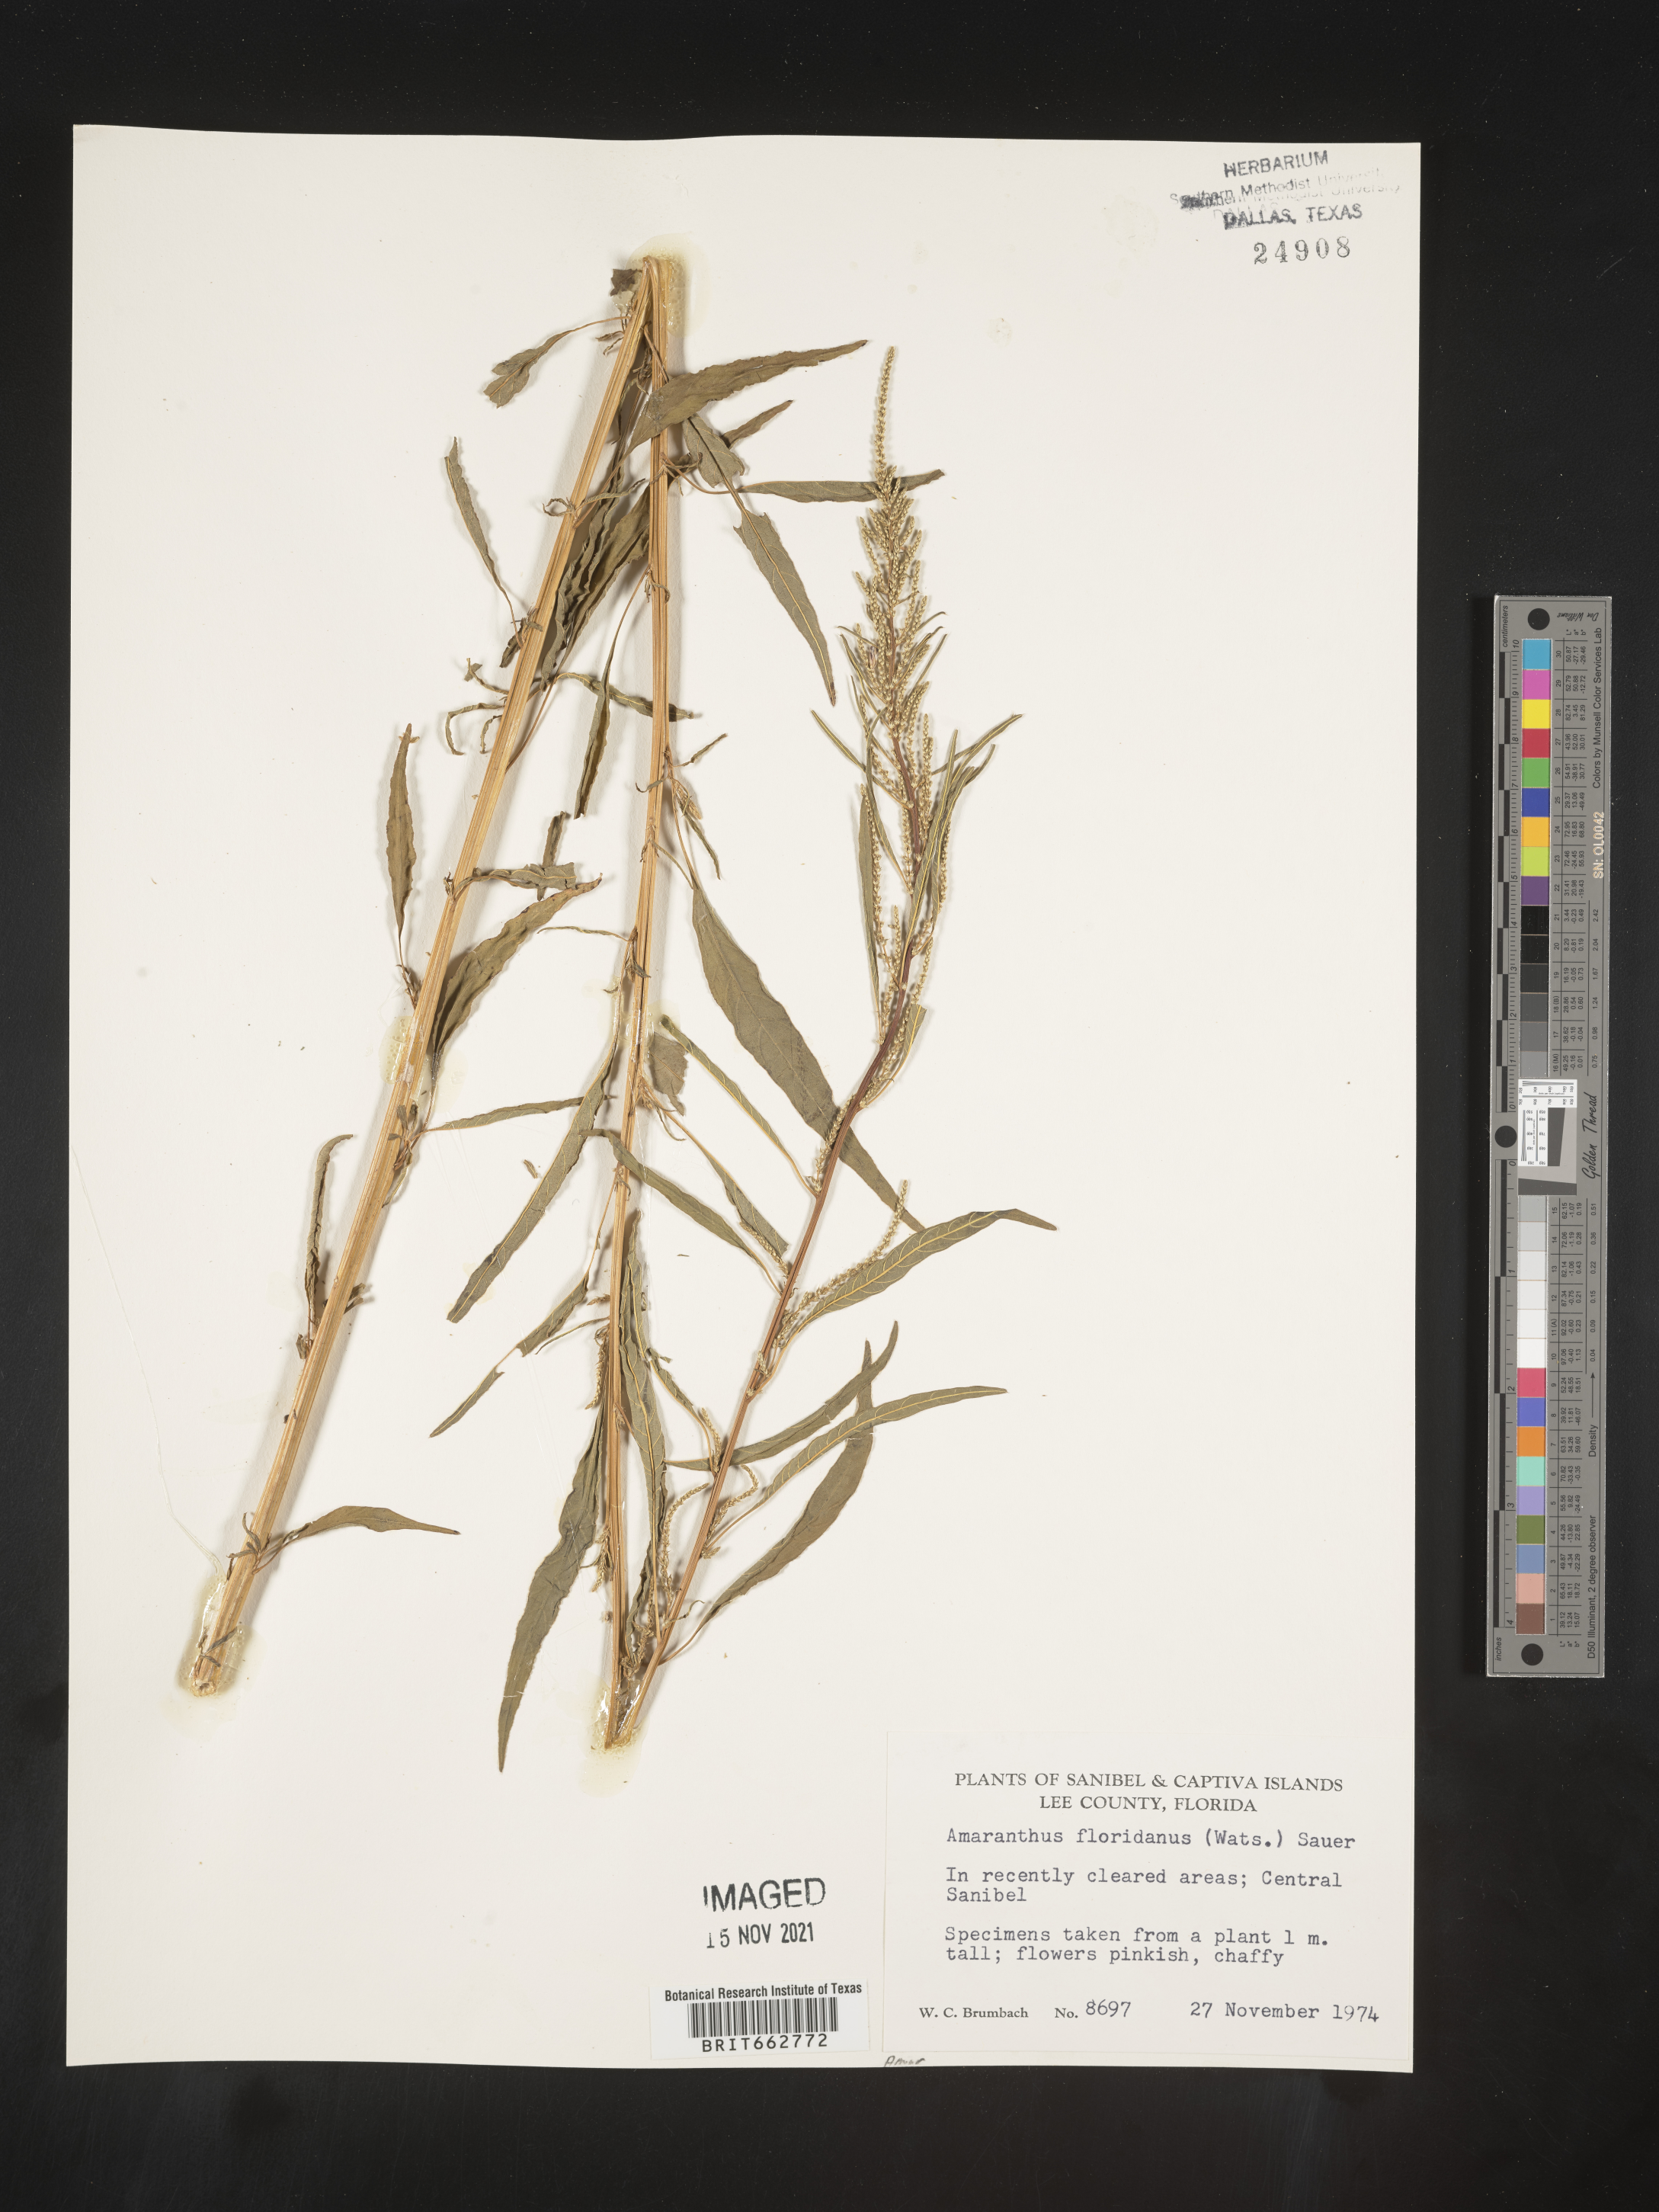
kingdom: Plantae
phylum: Tracheophyta
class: Magnoliopsida
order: Caryophyllales
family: Amaranthaceae
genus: Amaranthus
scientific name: Amaranthus
